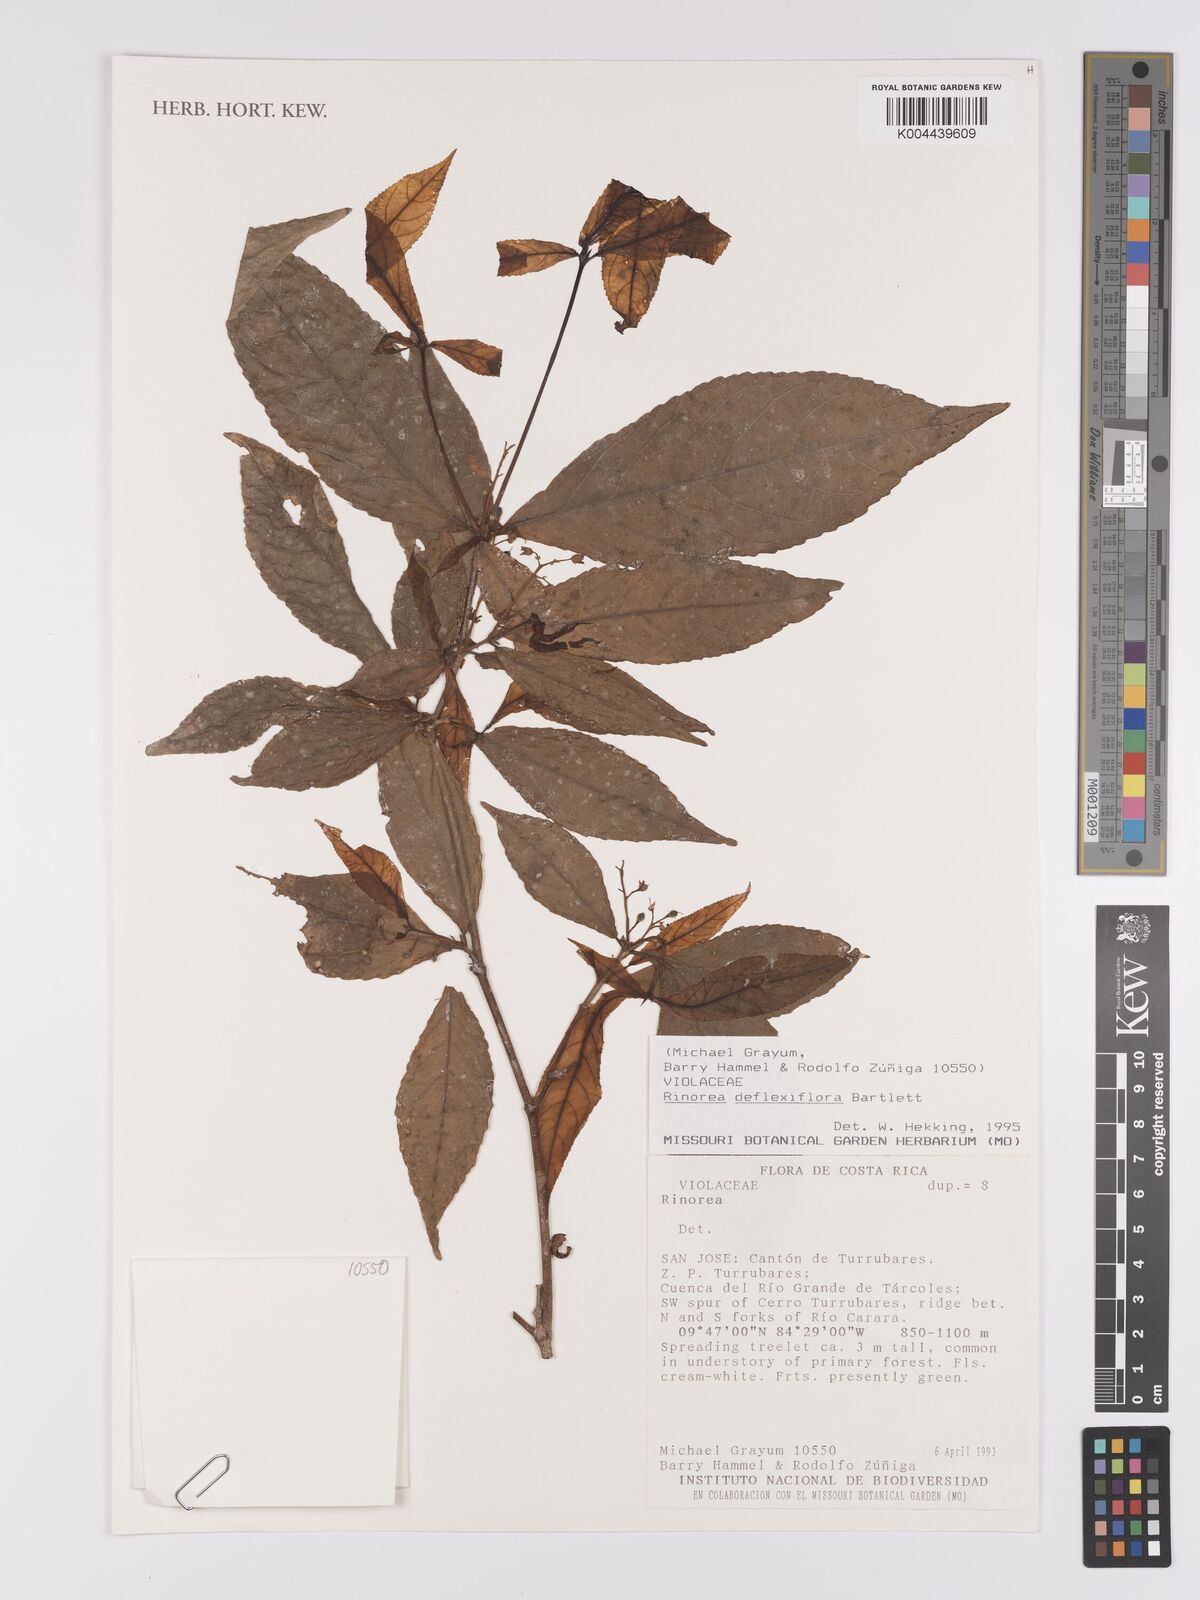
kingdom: Plantae
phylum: Tracheophyta
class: Magnoliopsida
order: Malpighiales
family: Violaceae
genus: Rinorea
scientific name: Rinorea deflexiflora
